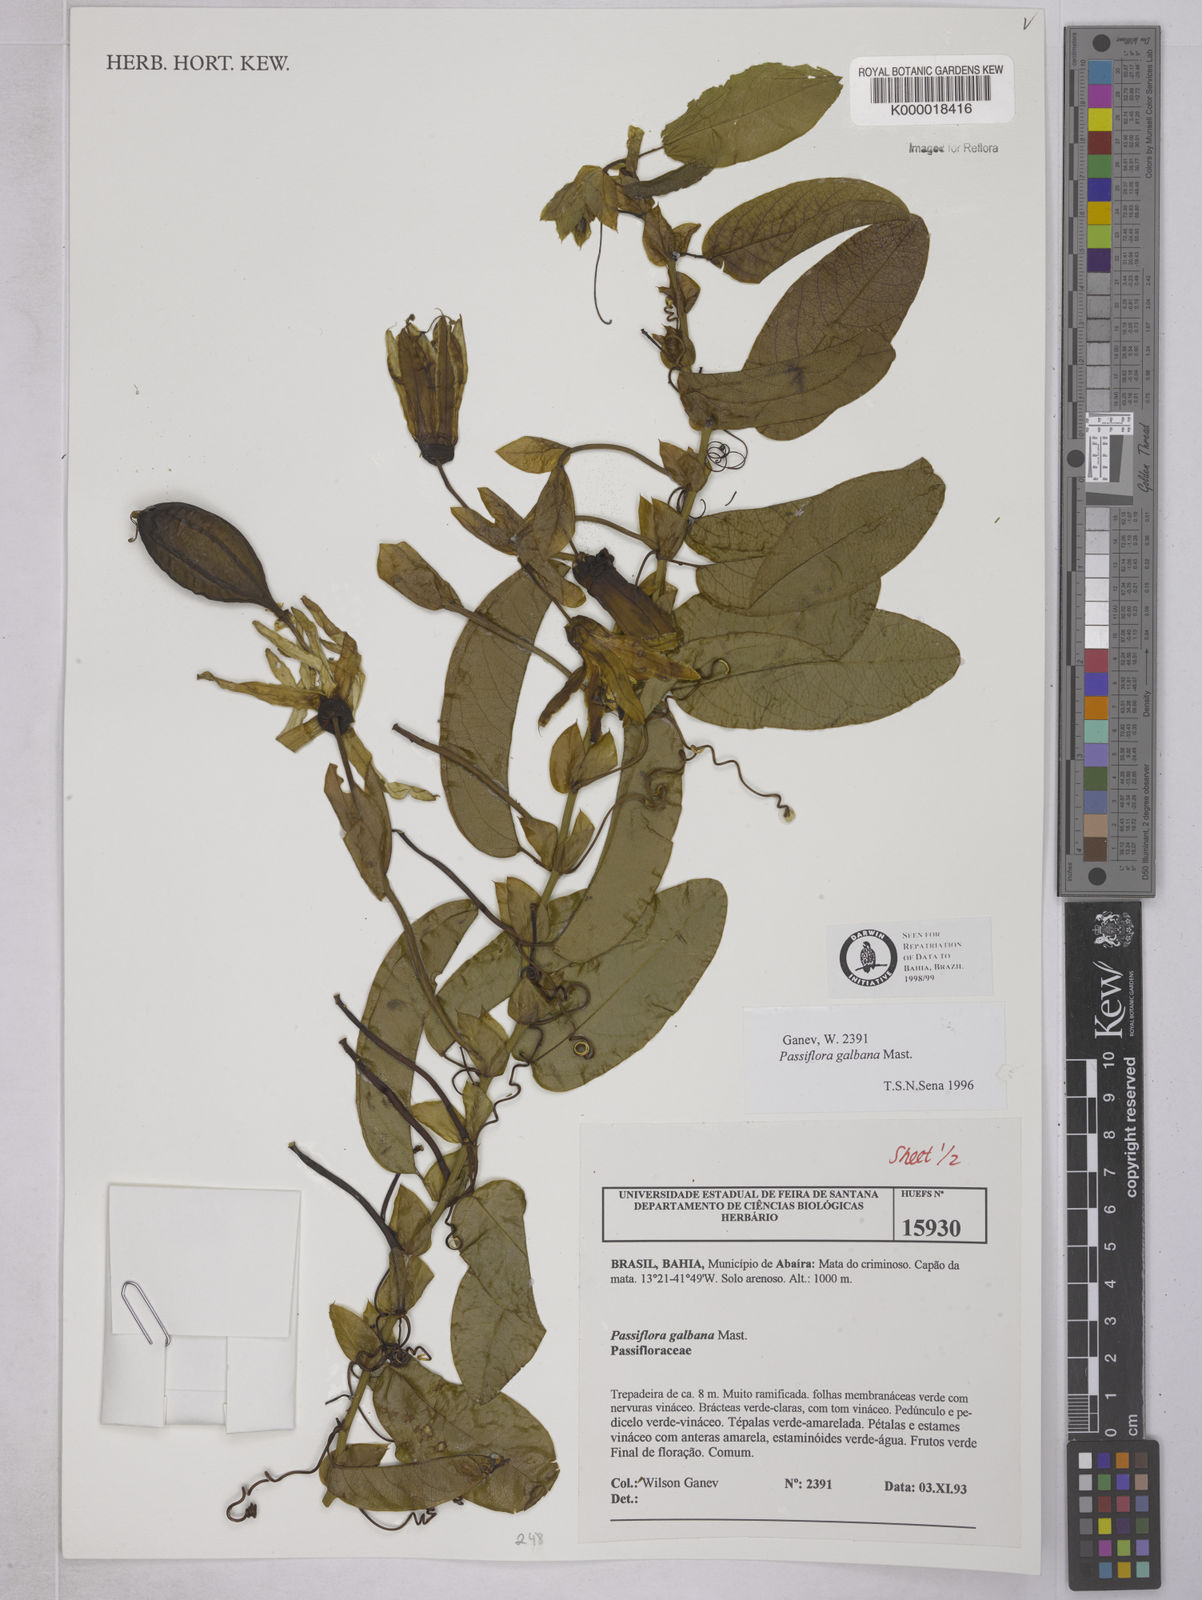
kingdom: Plantae
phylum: Tracheophyta
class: Magnoliopsida
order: Malpighiales
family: Passifloraceae
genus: Passiflora
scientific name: Passiflora silvestris
